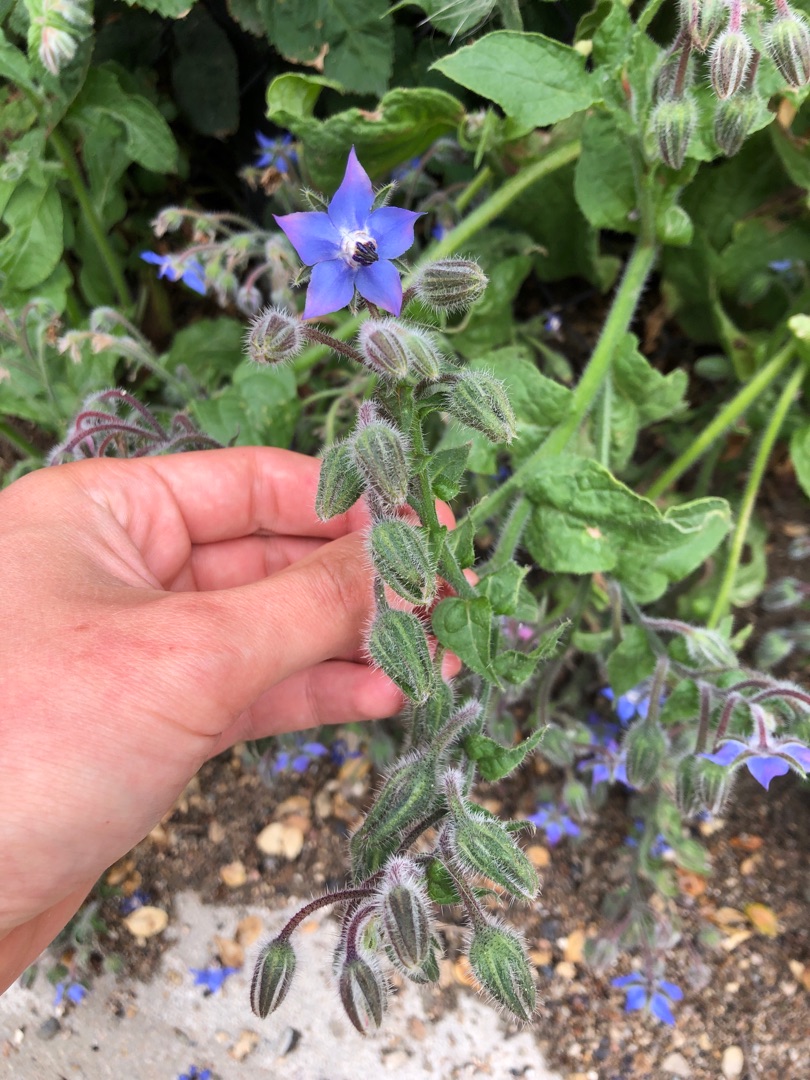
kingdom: Plantae
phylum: Tracheophyta
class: Magnoliopsida
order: Boraginales
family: Boraginaceae
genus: Borago
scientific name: Borago officinalis
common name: Hjulkrone
